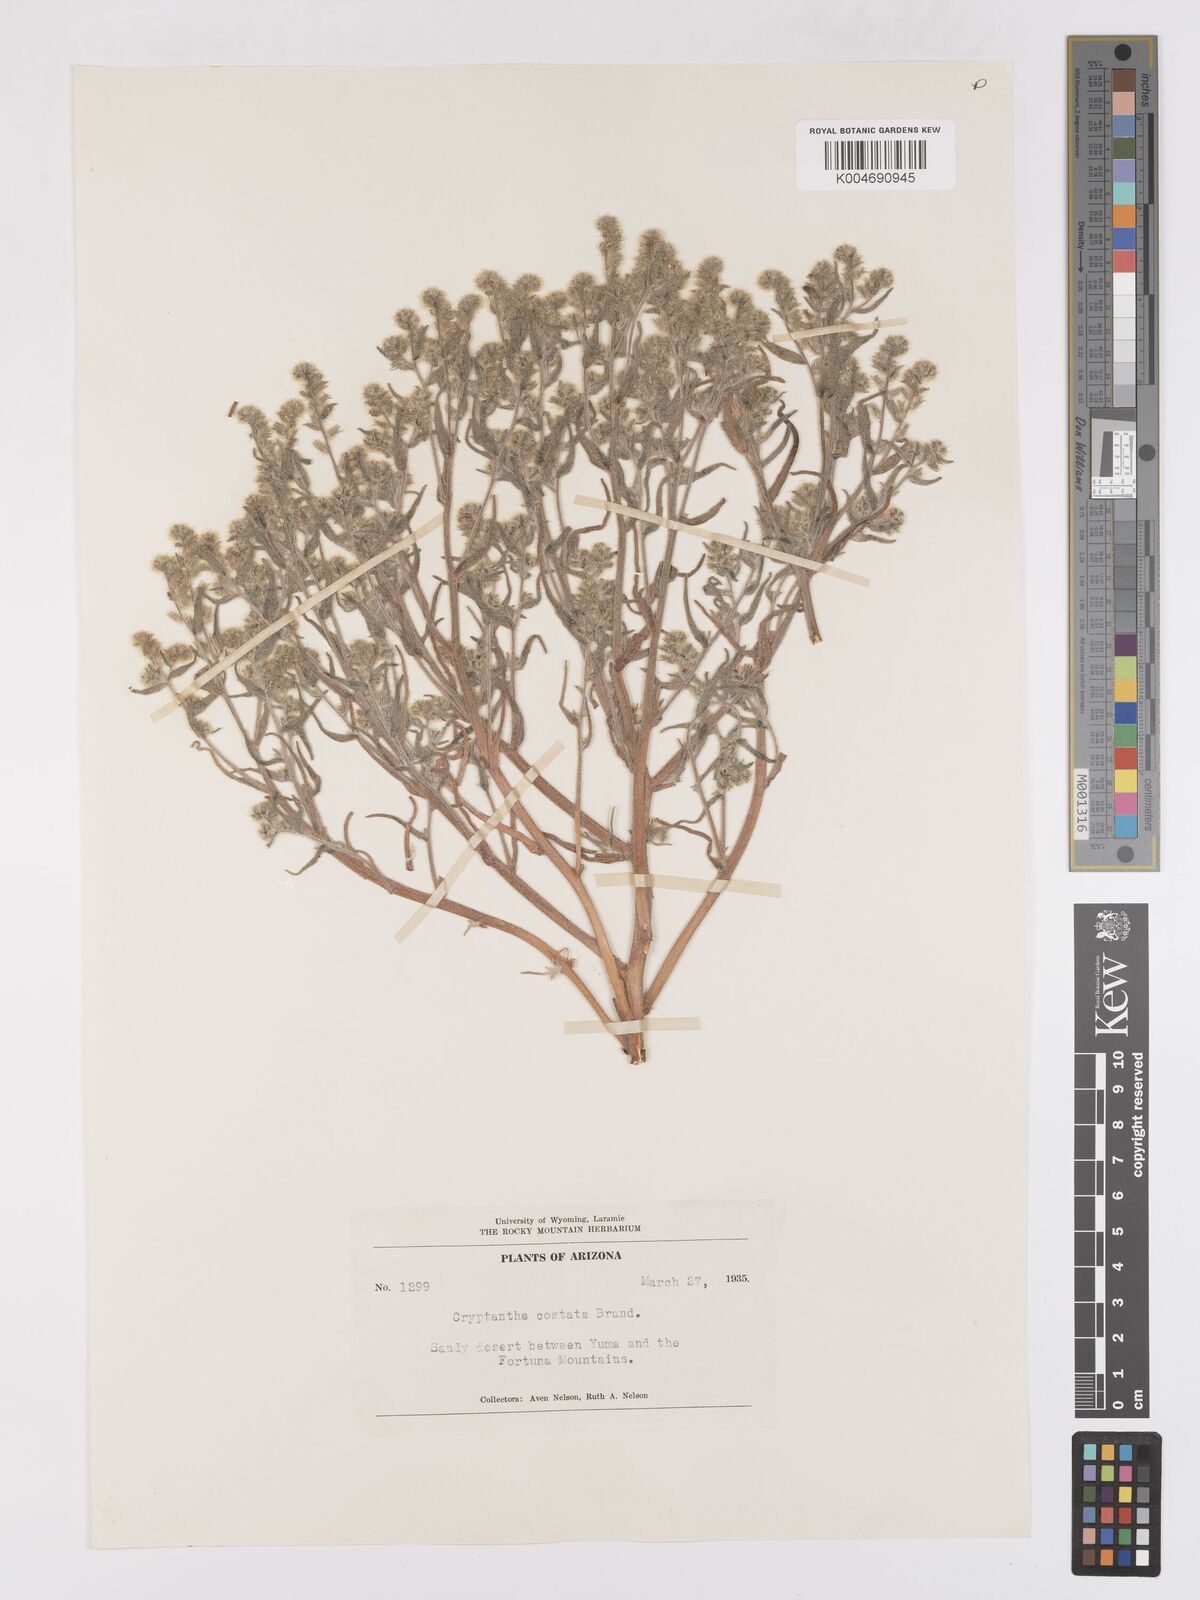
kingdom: Plantae
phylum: Tracheophyta
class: Magnoliopsida
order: Boraginales
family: Boraginaceae
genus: Johnstonella
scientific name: Johnstonella costata
